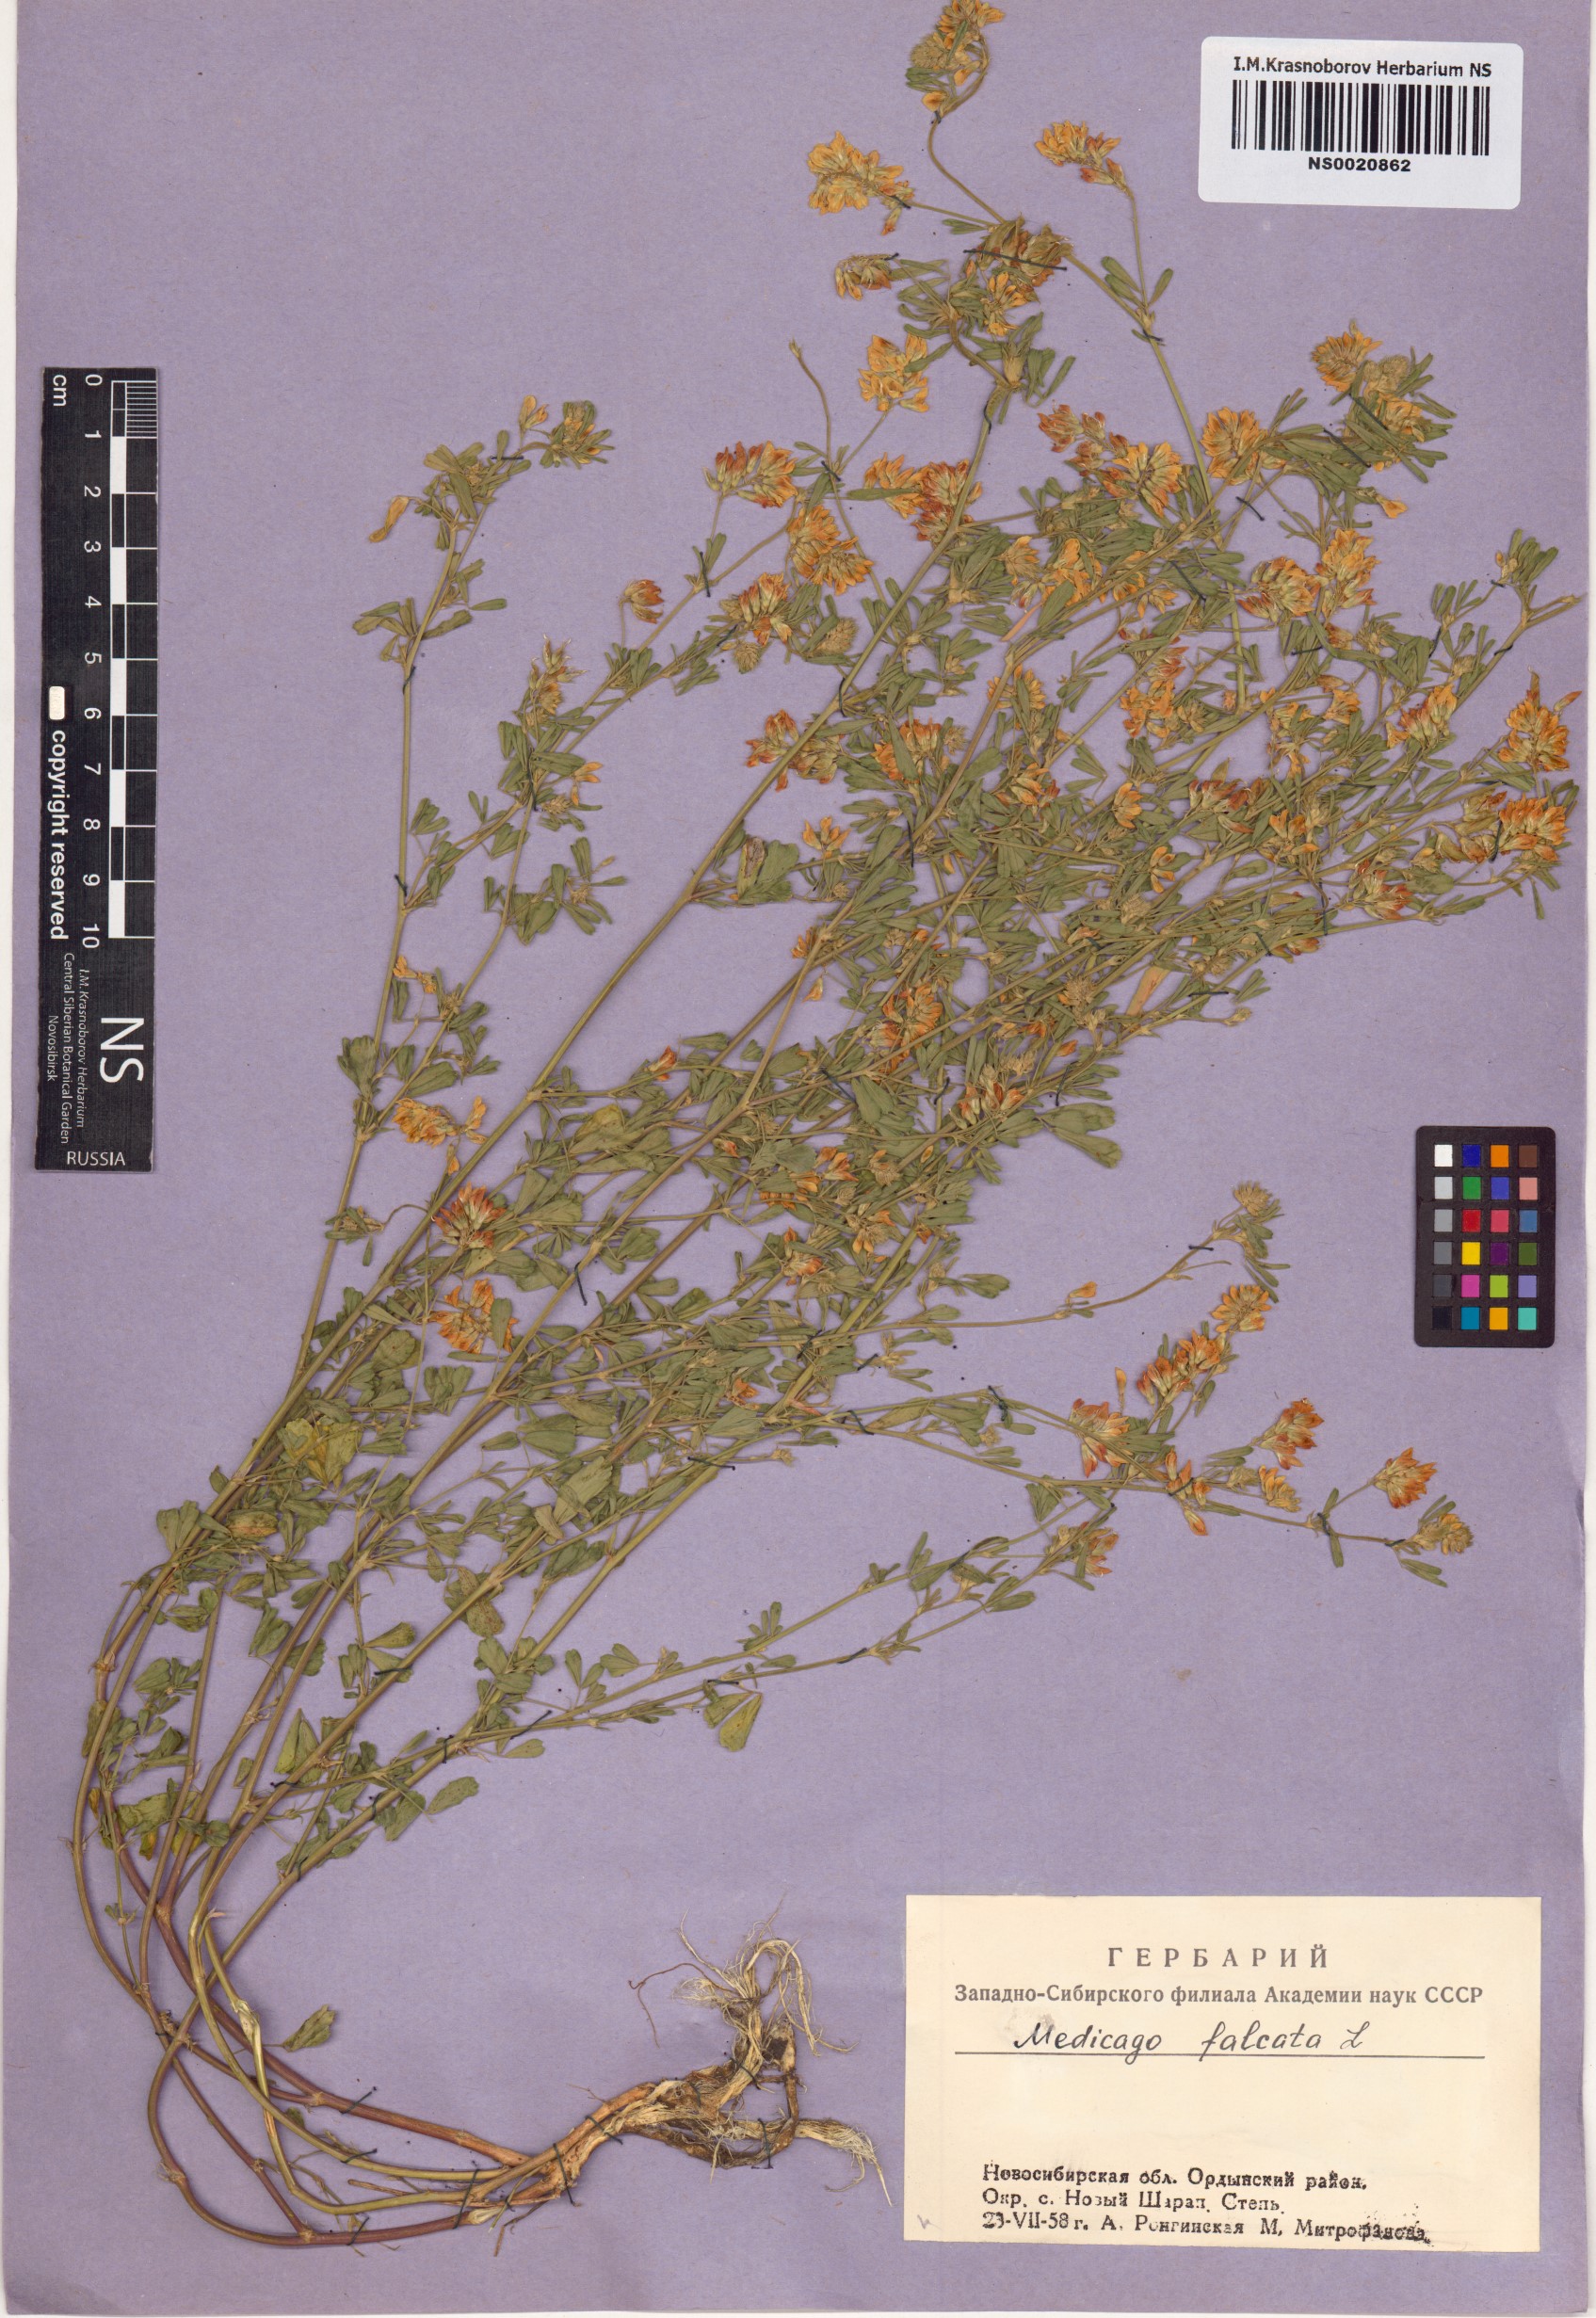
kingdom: Plantae
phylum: Tracheophyta
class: Magnoliopsida
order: Fabales
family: Fabaceae
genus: Medicago
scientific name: Medicago falcata
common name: Sickle medick
